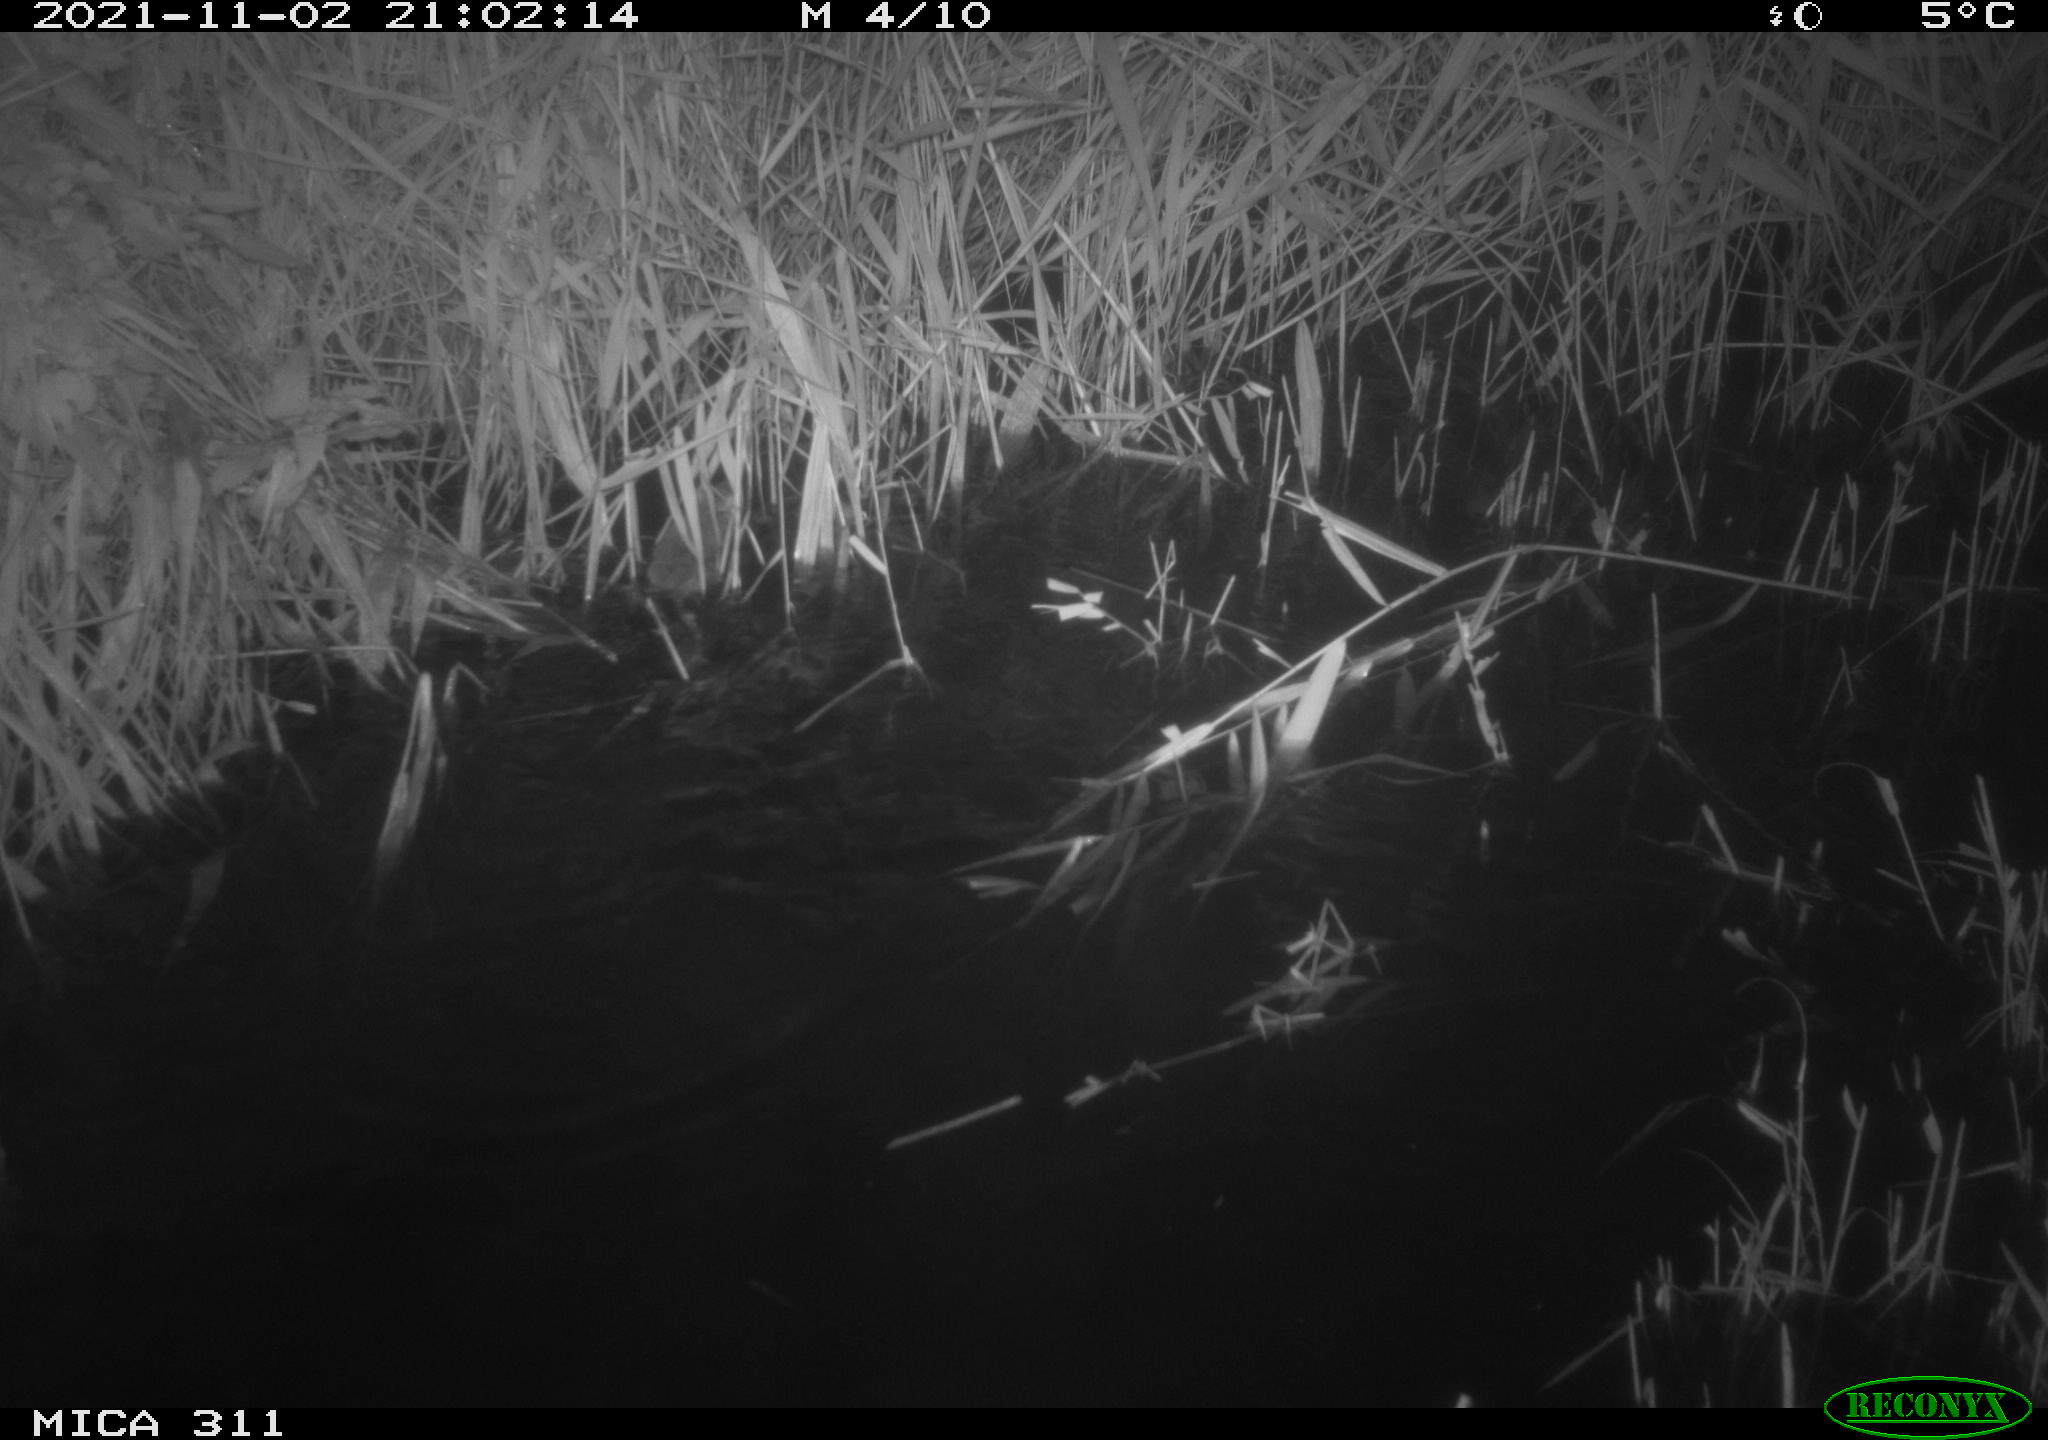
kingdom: Animalia
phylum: Chordata
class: Mammalia
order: Rodentia
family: Muridae
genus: Rattus
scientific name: Rattus norvegicus
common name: Brown rat
